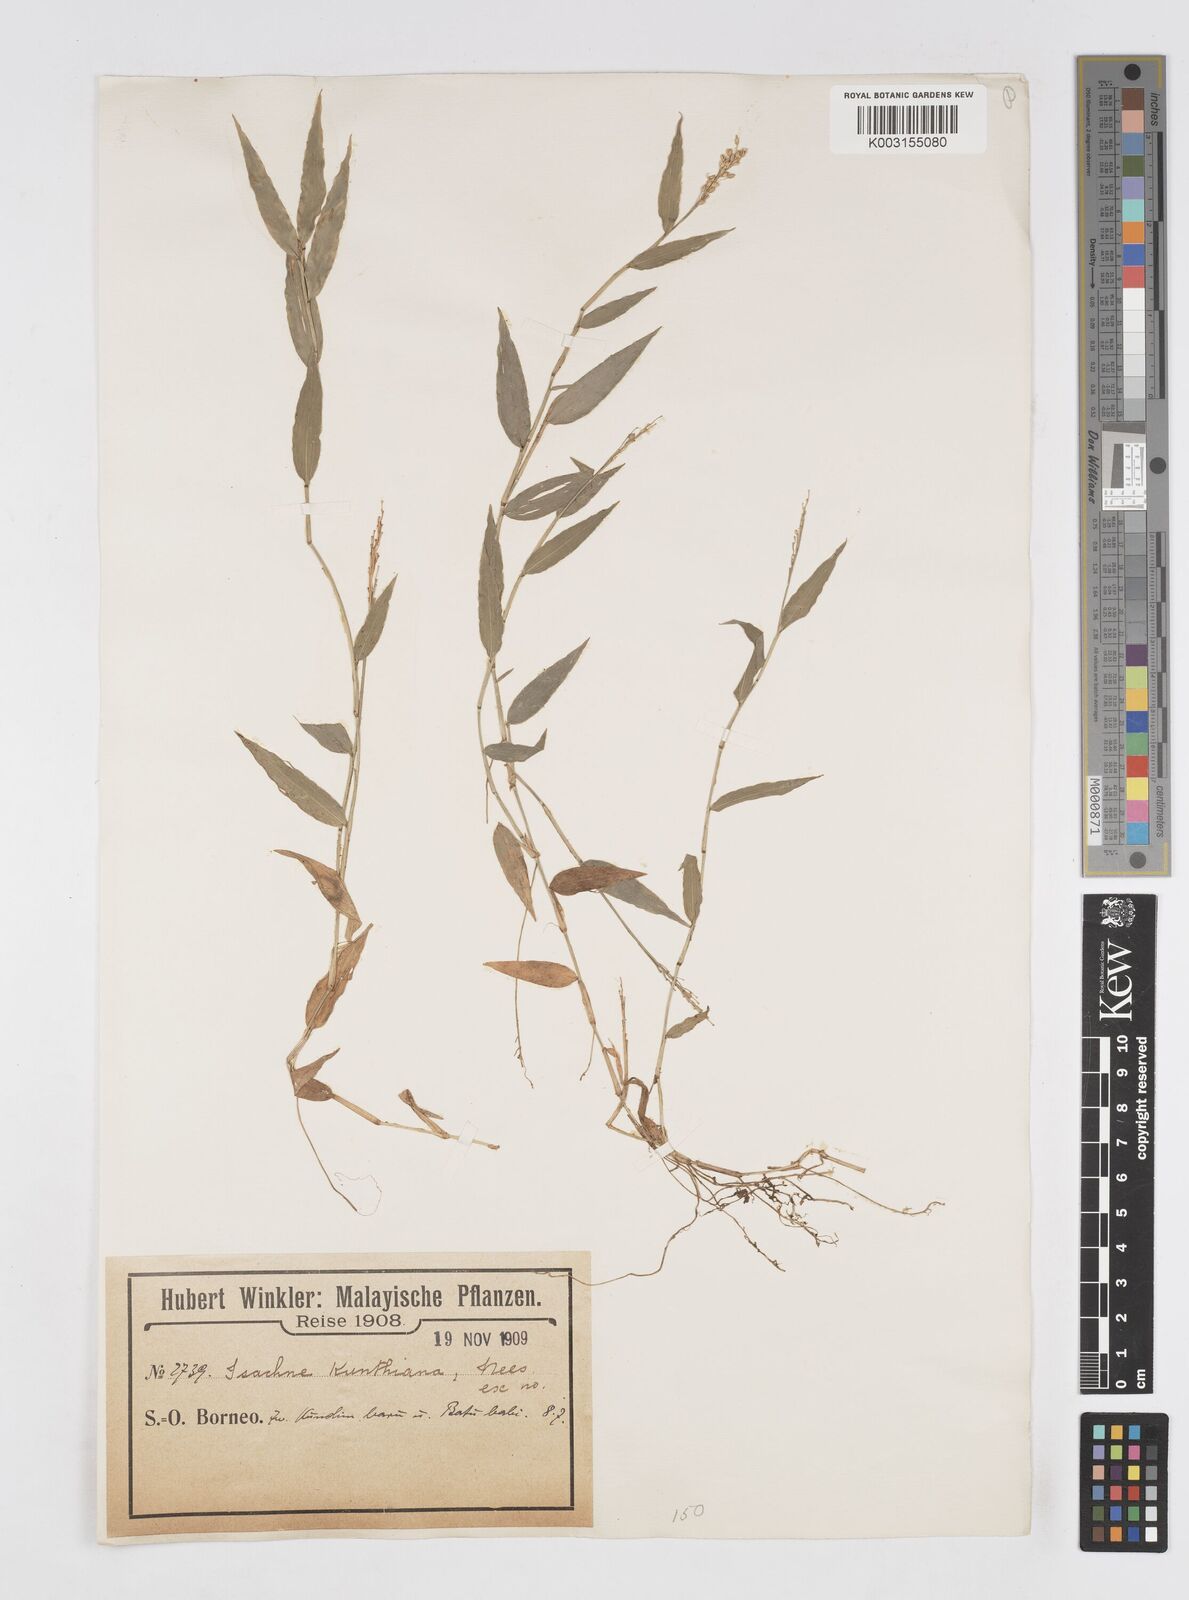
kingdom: Plantae
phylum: Tracheophyta
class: Liliopsida
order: Poales
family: Poaceae
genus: Isachne
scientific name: Isachne schmidtii
